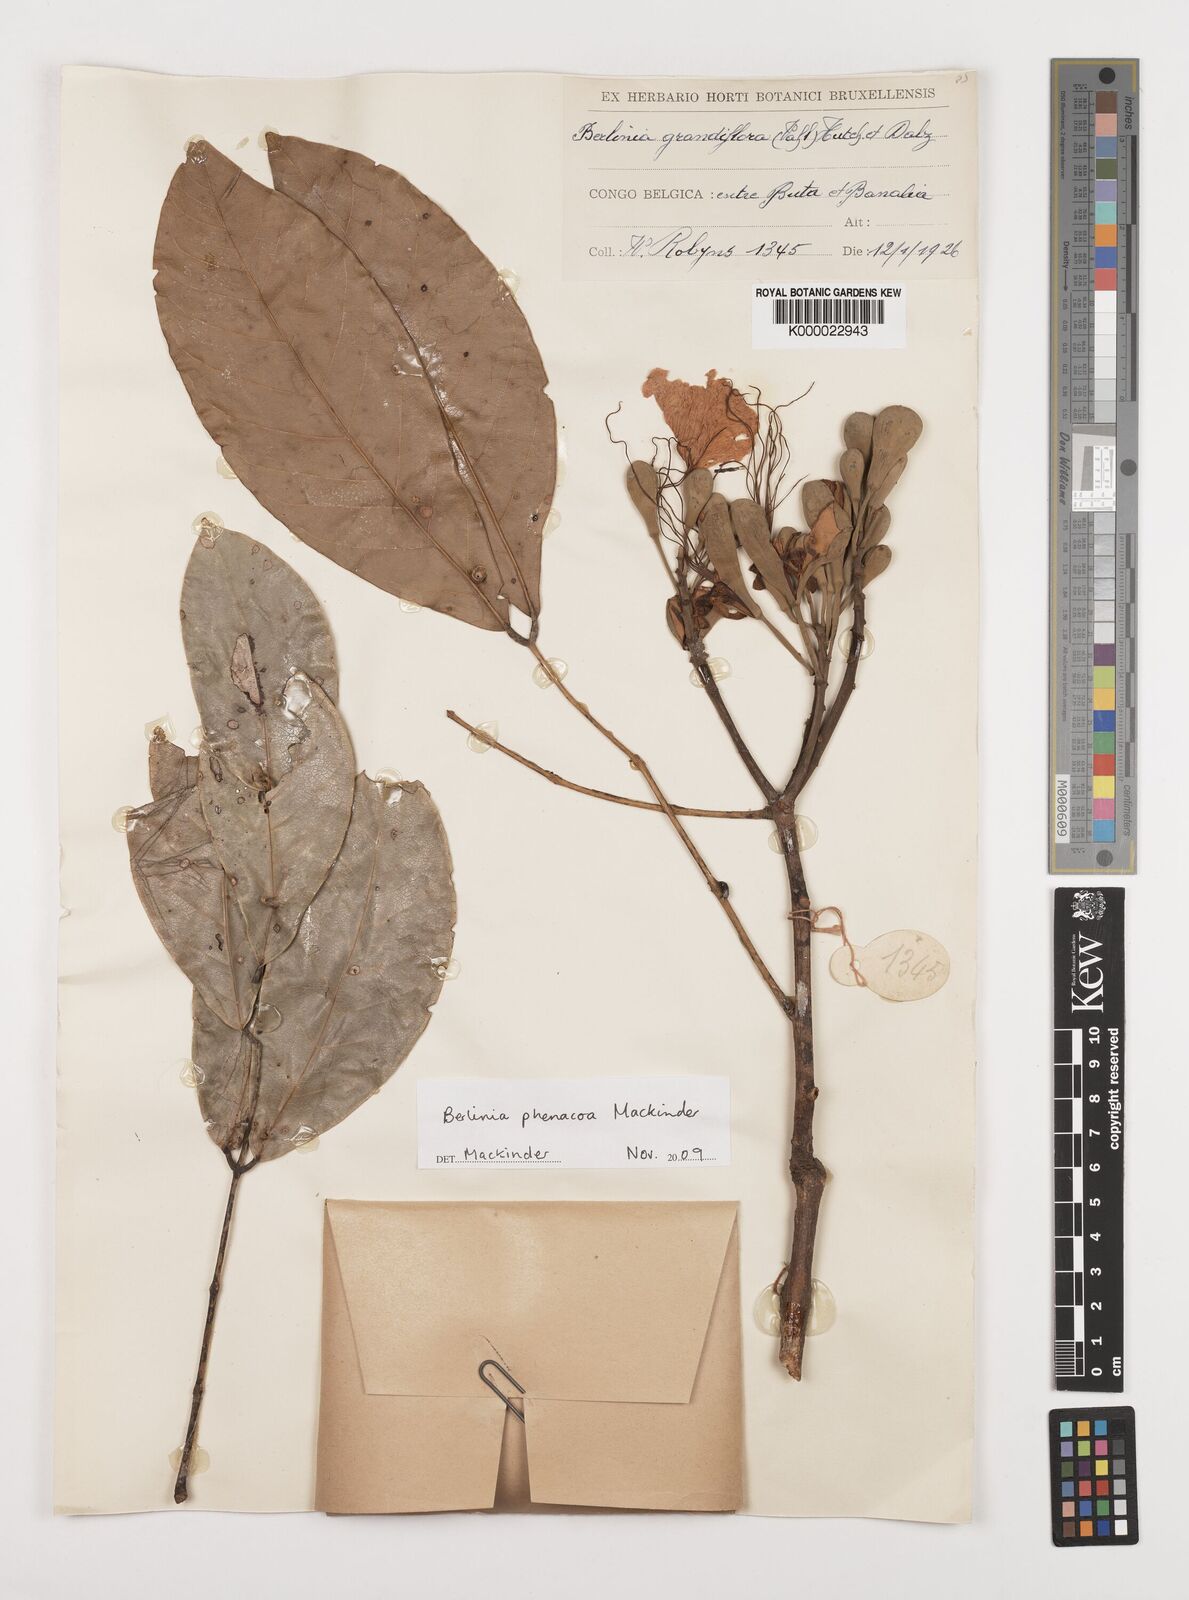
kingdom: Plantae
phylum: Tracheophyta
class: Magnoliopsida
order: Fabales
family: Fabaceae
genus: Berlinia
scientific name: Berlinia phenacoa
